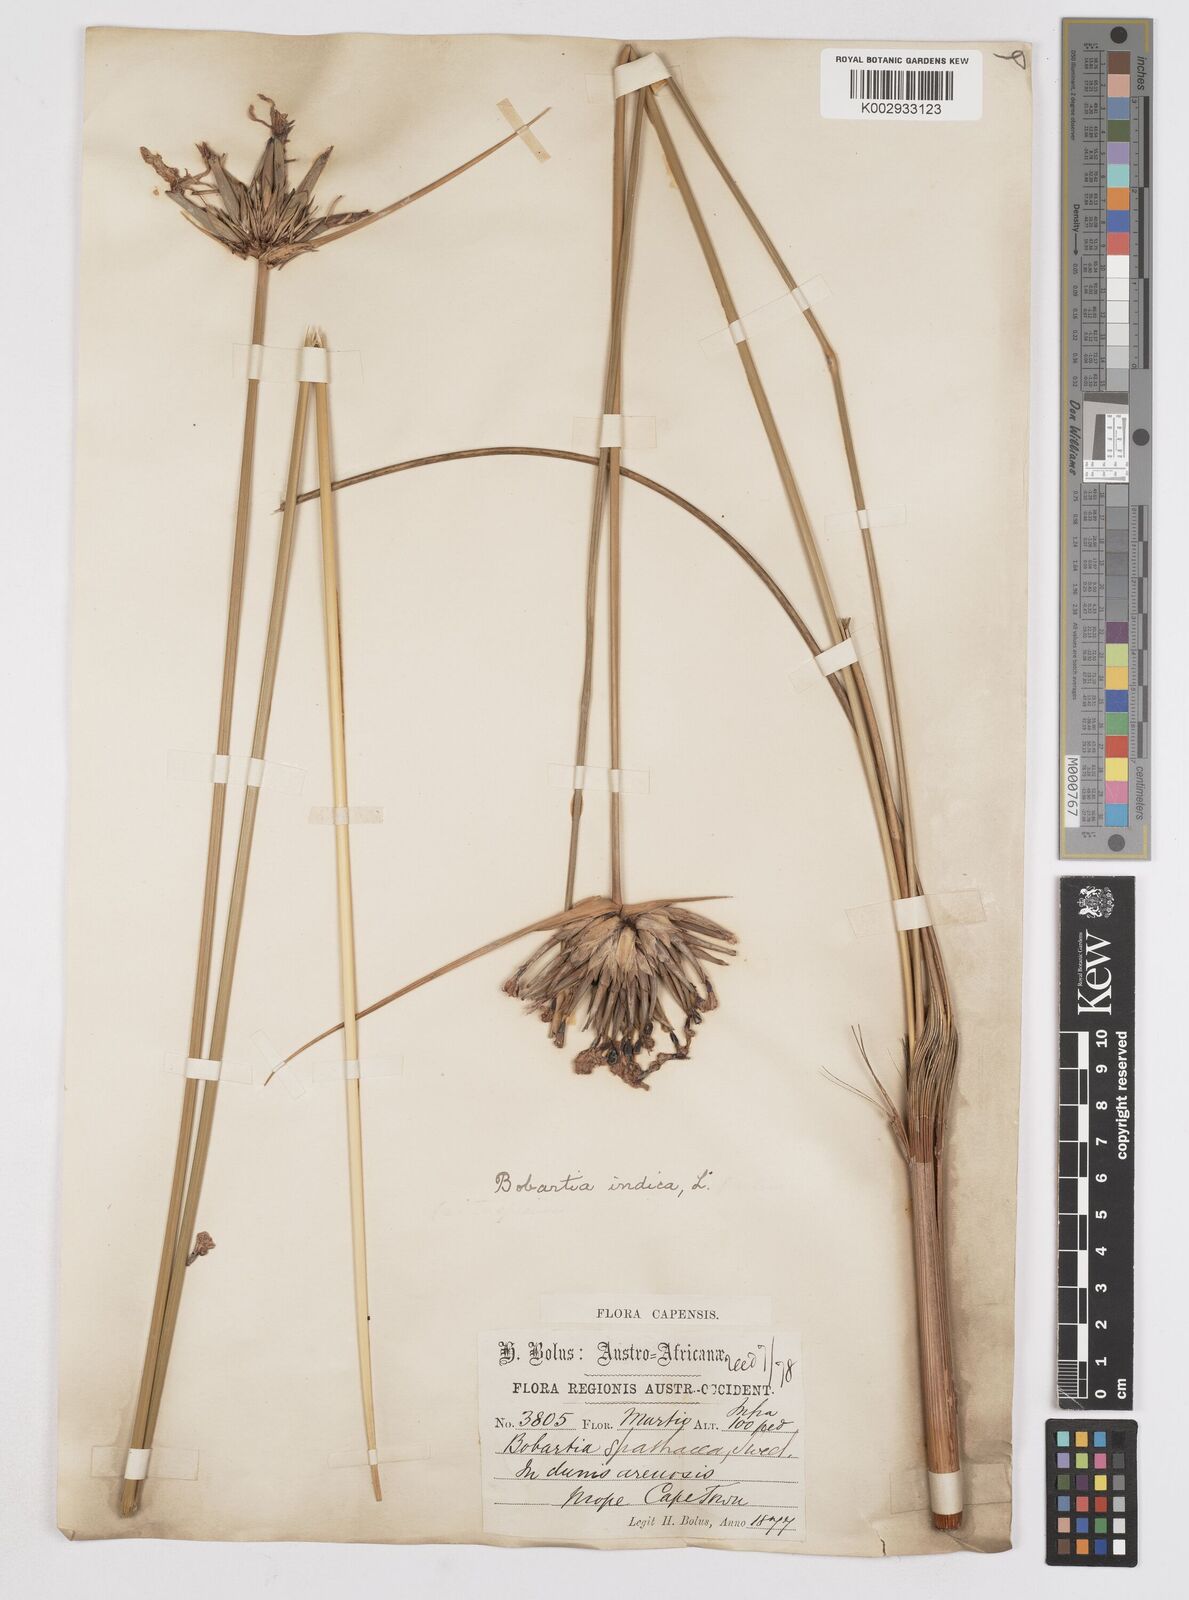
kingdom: Plantae
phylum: Tracheophyta
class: Liliopsida
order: Asparagales
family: Iridaceae
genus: Bobartia
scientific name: Bobartia indica
